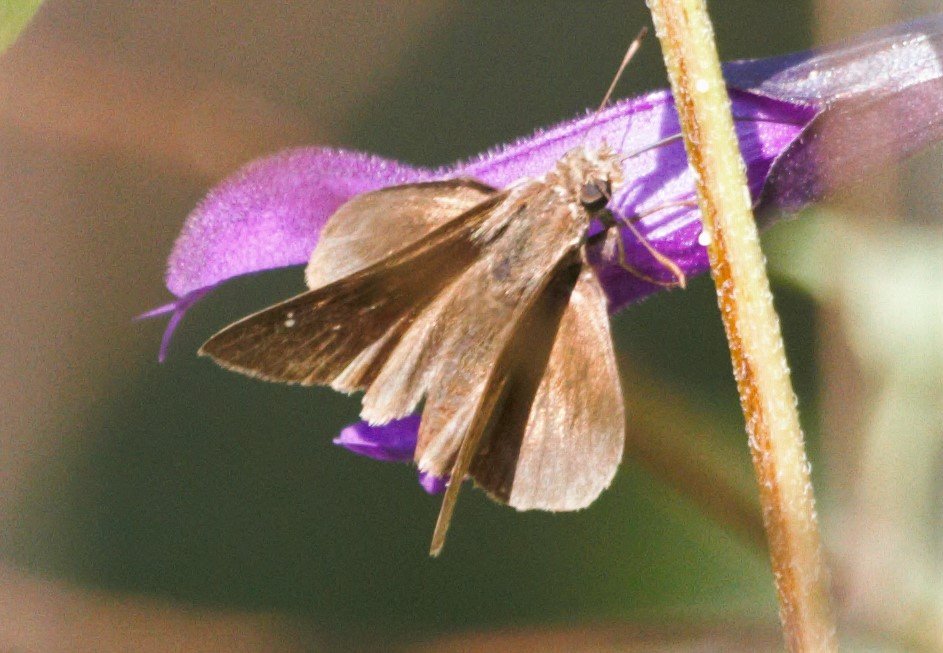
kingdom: Animalia
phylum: Arthropoda
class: Insecta
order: Lepidoptera
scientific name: Lepidoptera
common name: Butterflies
